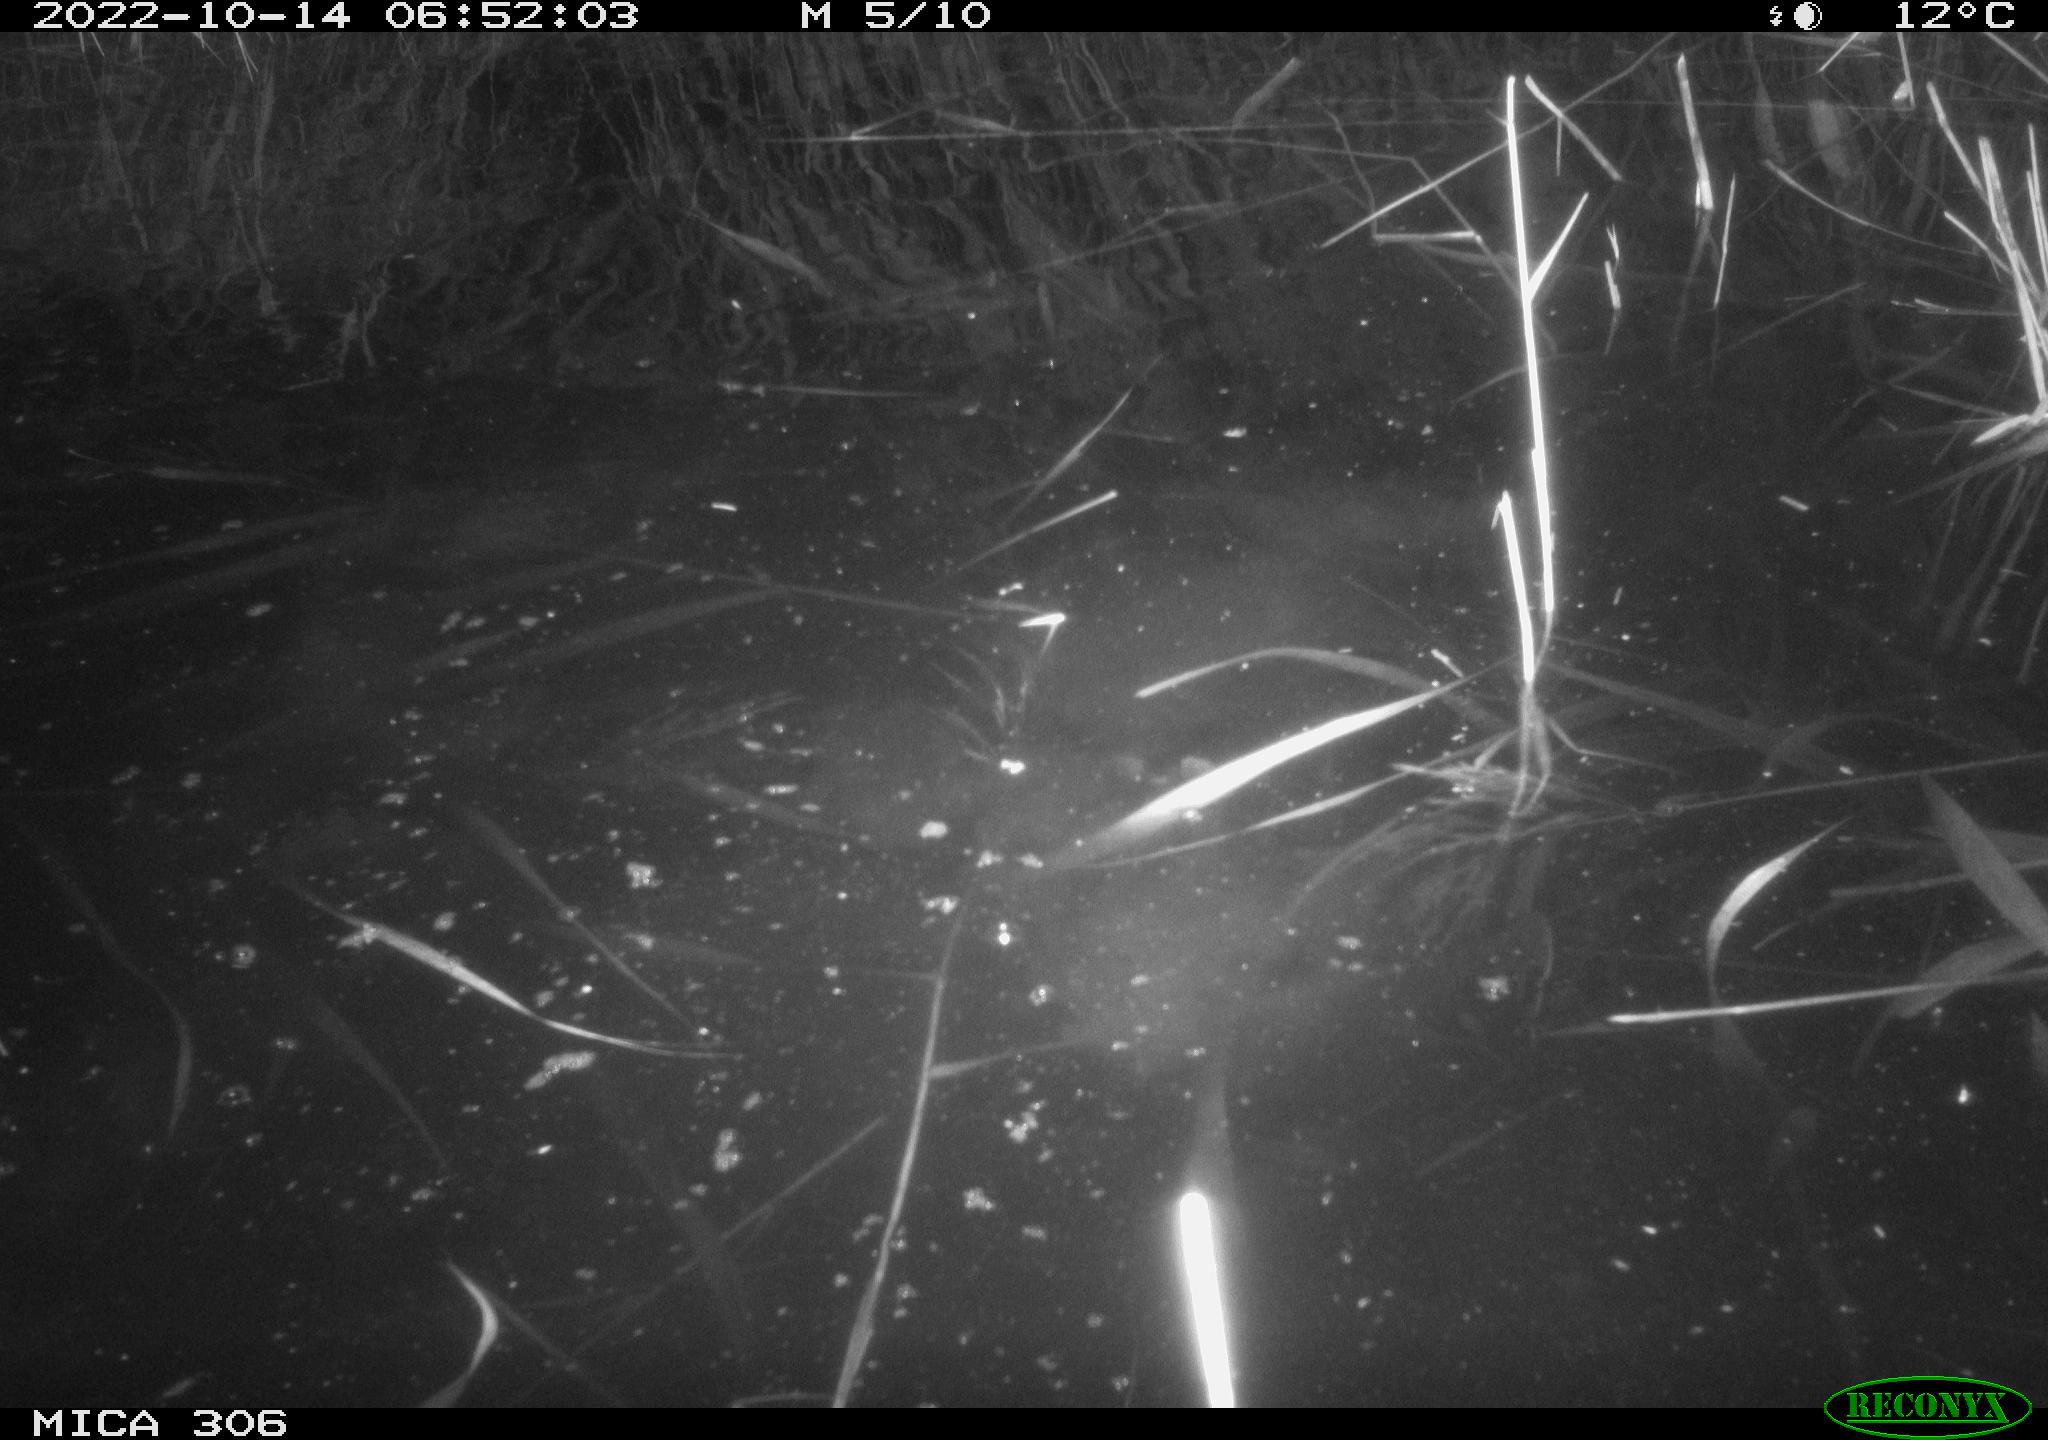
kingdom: Animalia
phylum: Chordata
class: Mammalia
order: Rodentia
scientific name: Rodentia
